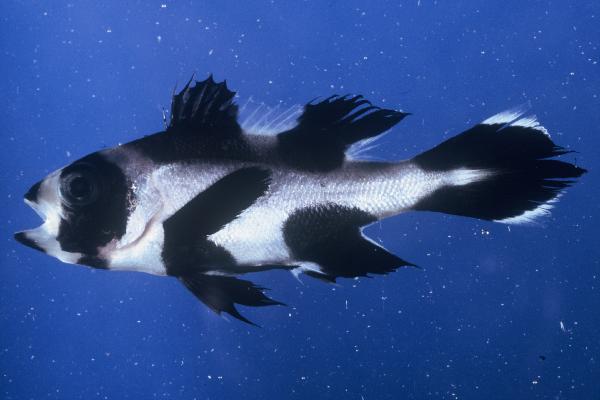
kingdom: Animalia
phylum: Chordata
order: Perciformes
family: Lutjanidae
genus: Macolor
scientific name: Macolor niger
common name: Black snapper
